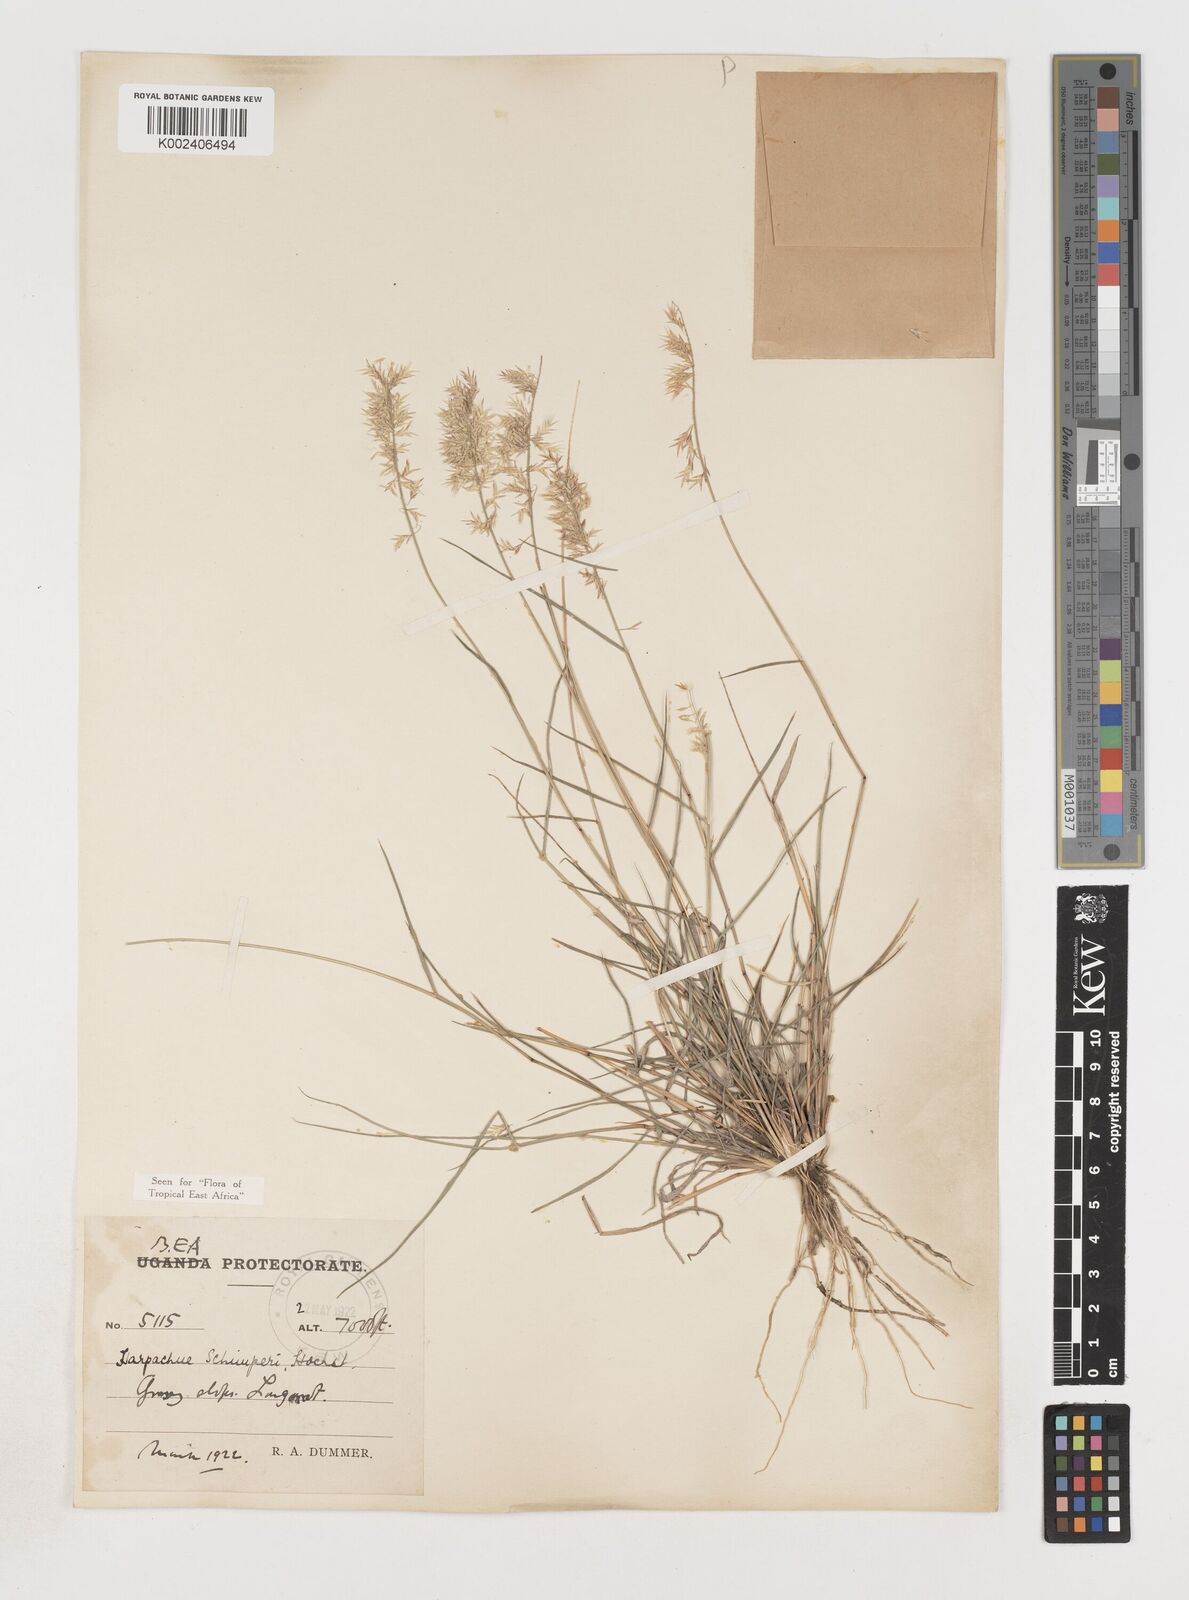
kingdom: Plantae
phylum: Tracheophyta
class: Liliopsida
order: Poales
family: Poaceae
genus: Harpachne
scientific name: Harpachne schimperi
